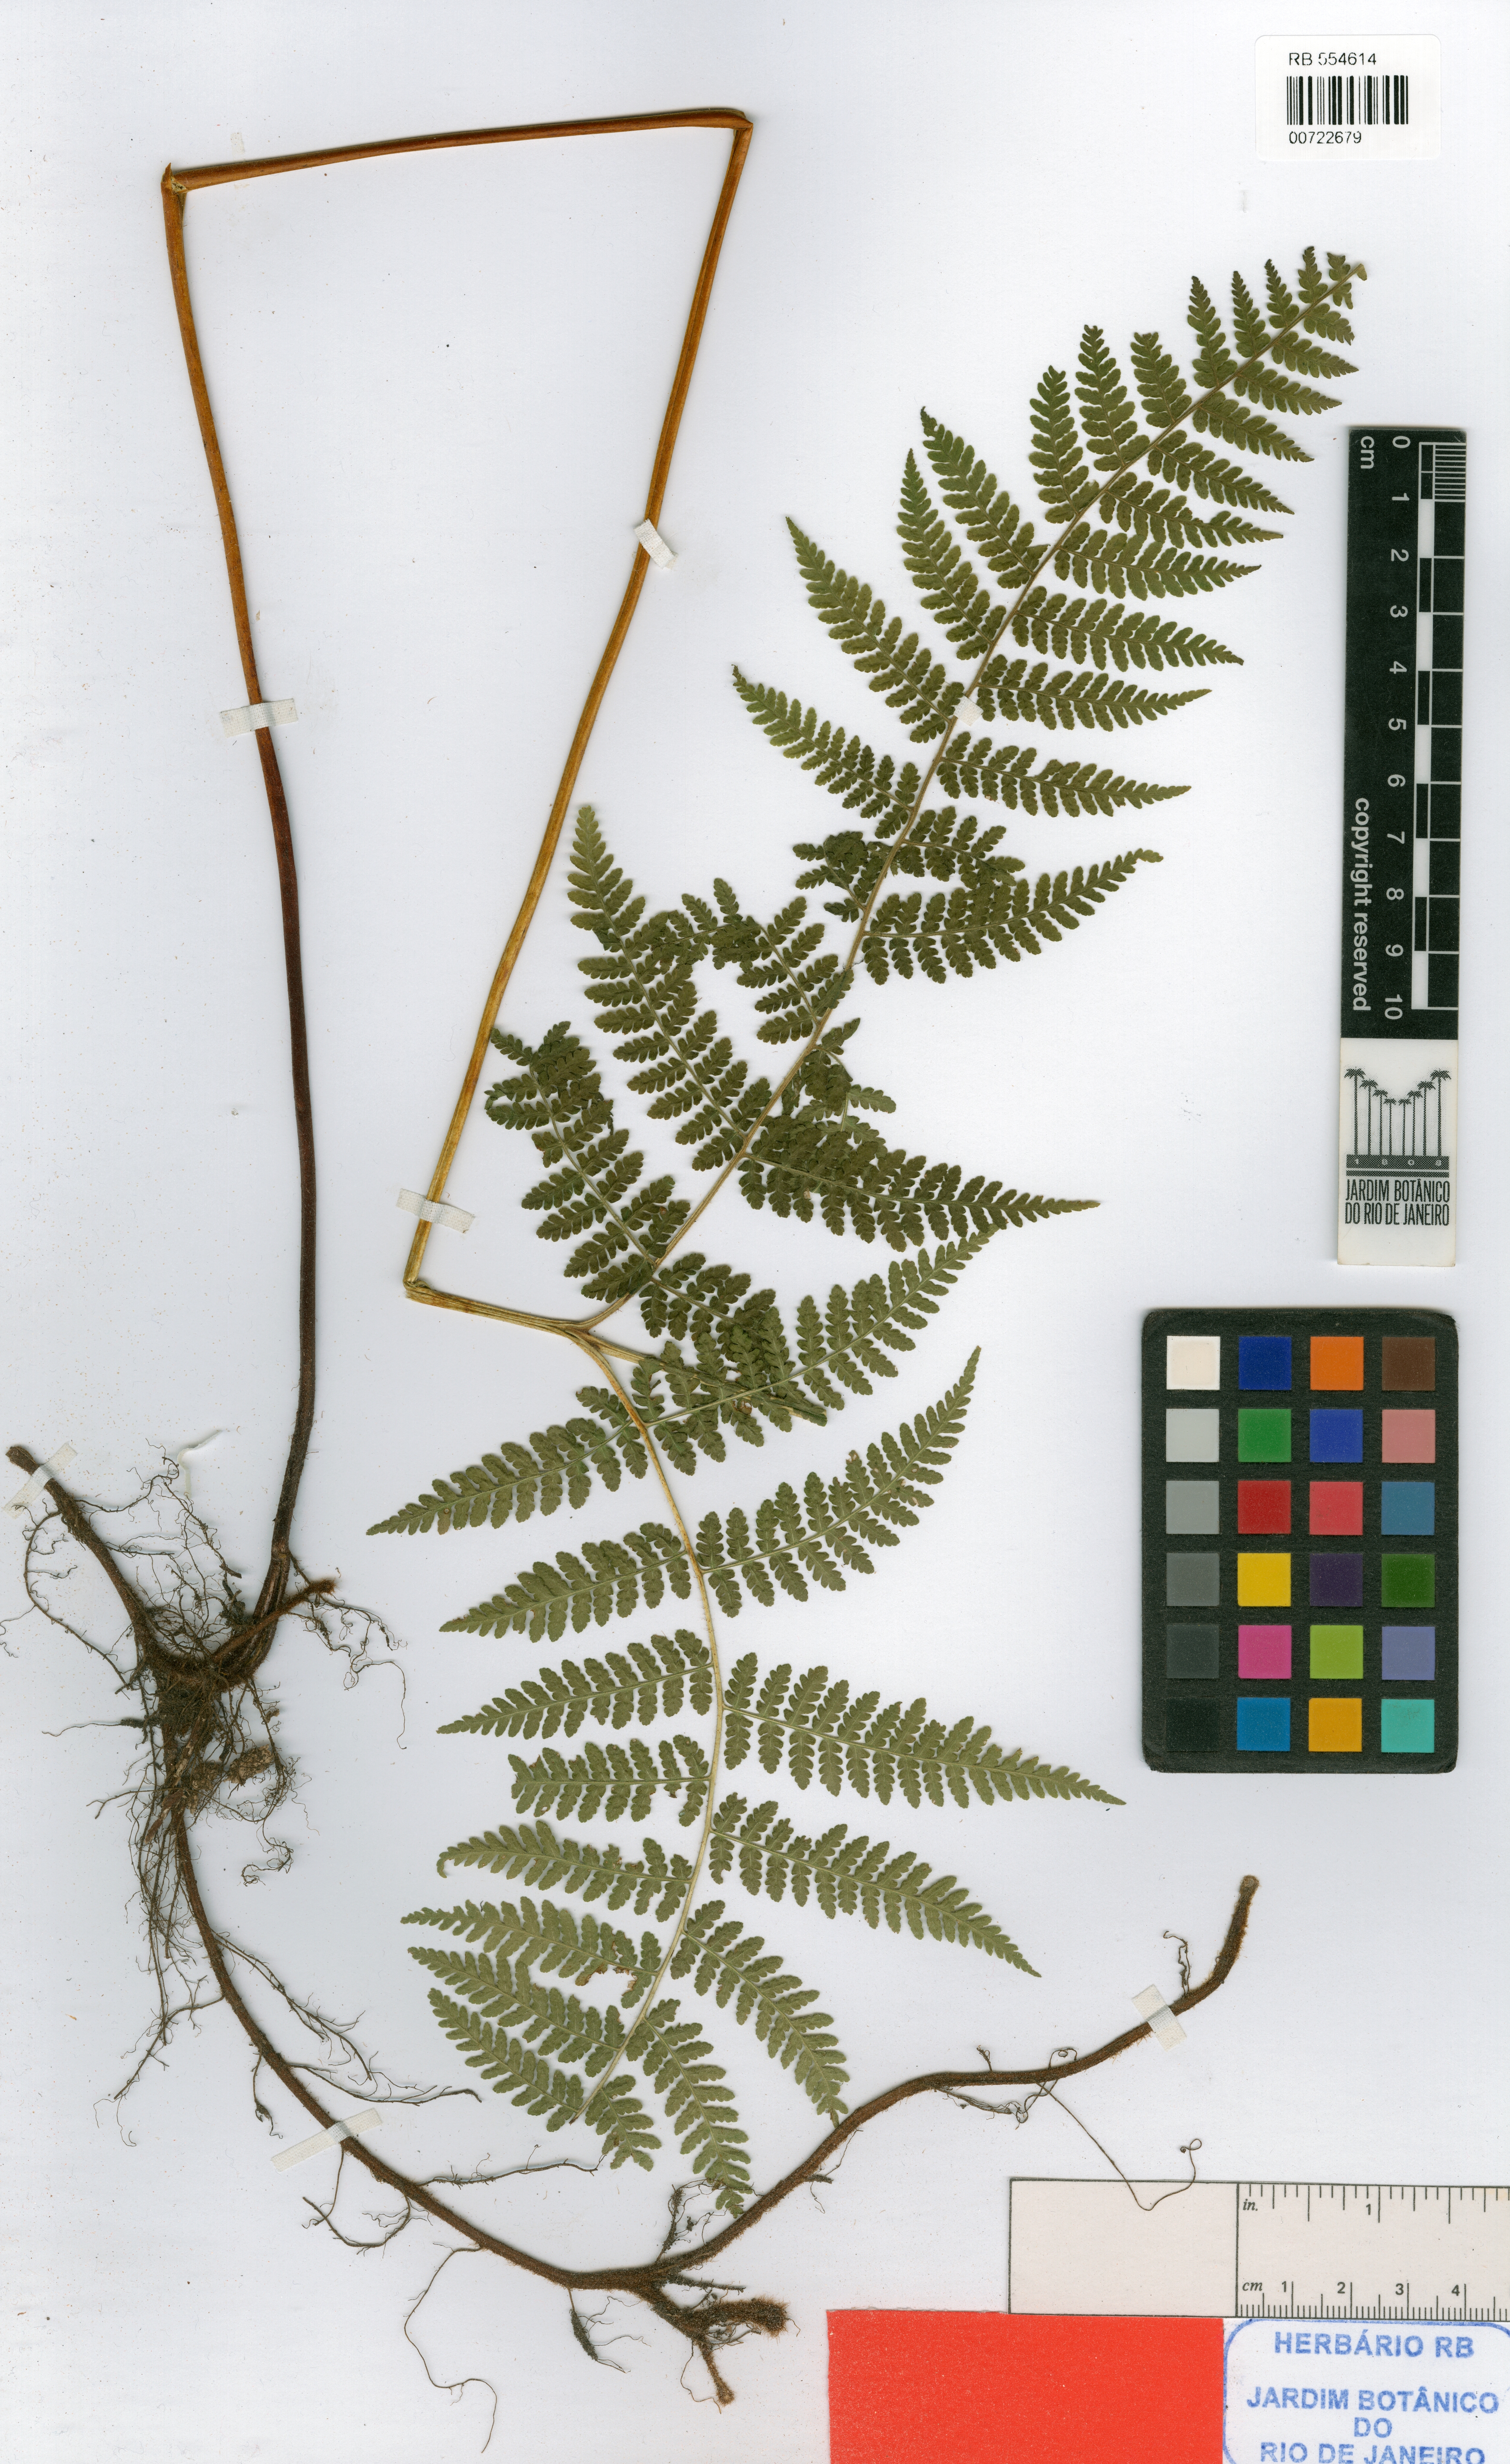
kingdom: Plantae
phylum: Tracheophyta
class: Polypodiopsida
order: Polypodiales
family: Dennstaedtiaceae
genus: Hypolepis
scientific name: Hypolepis paulistana
